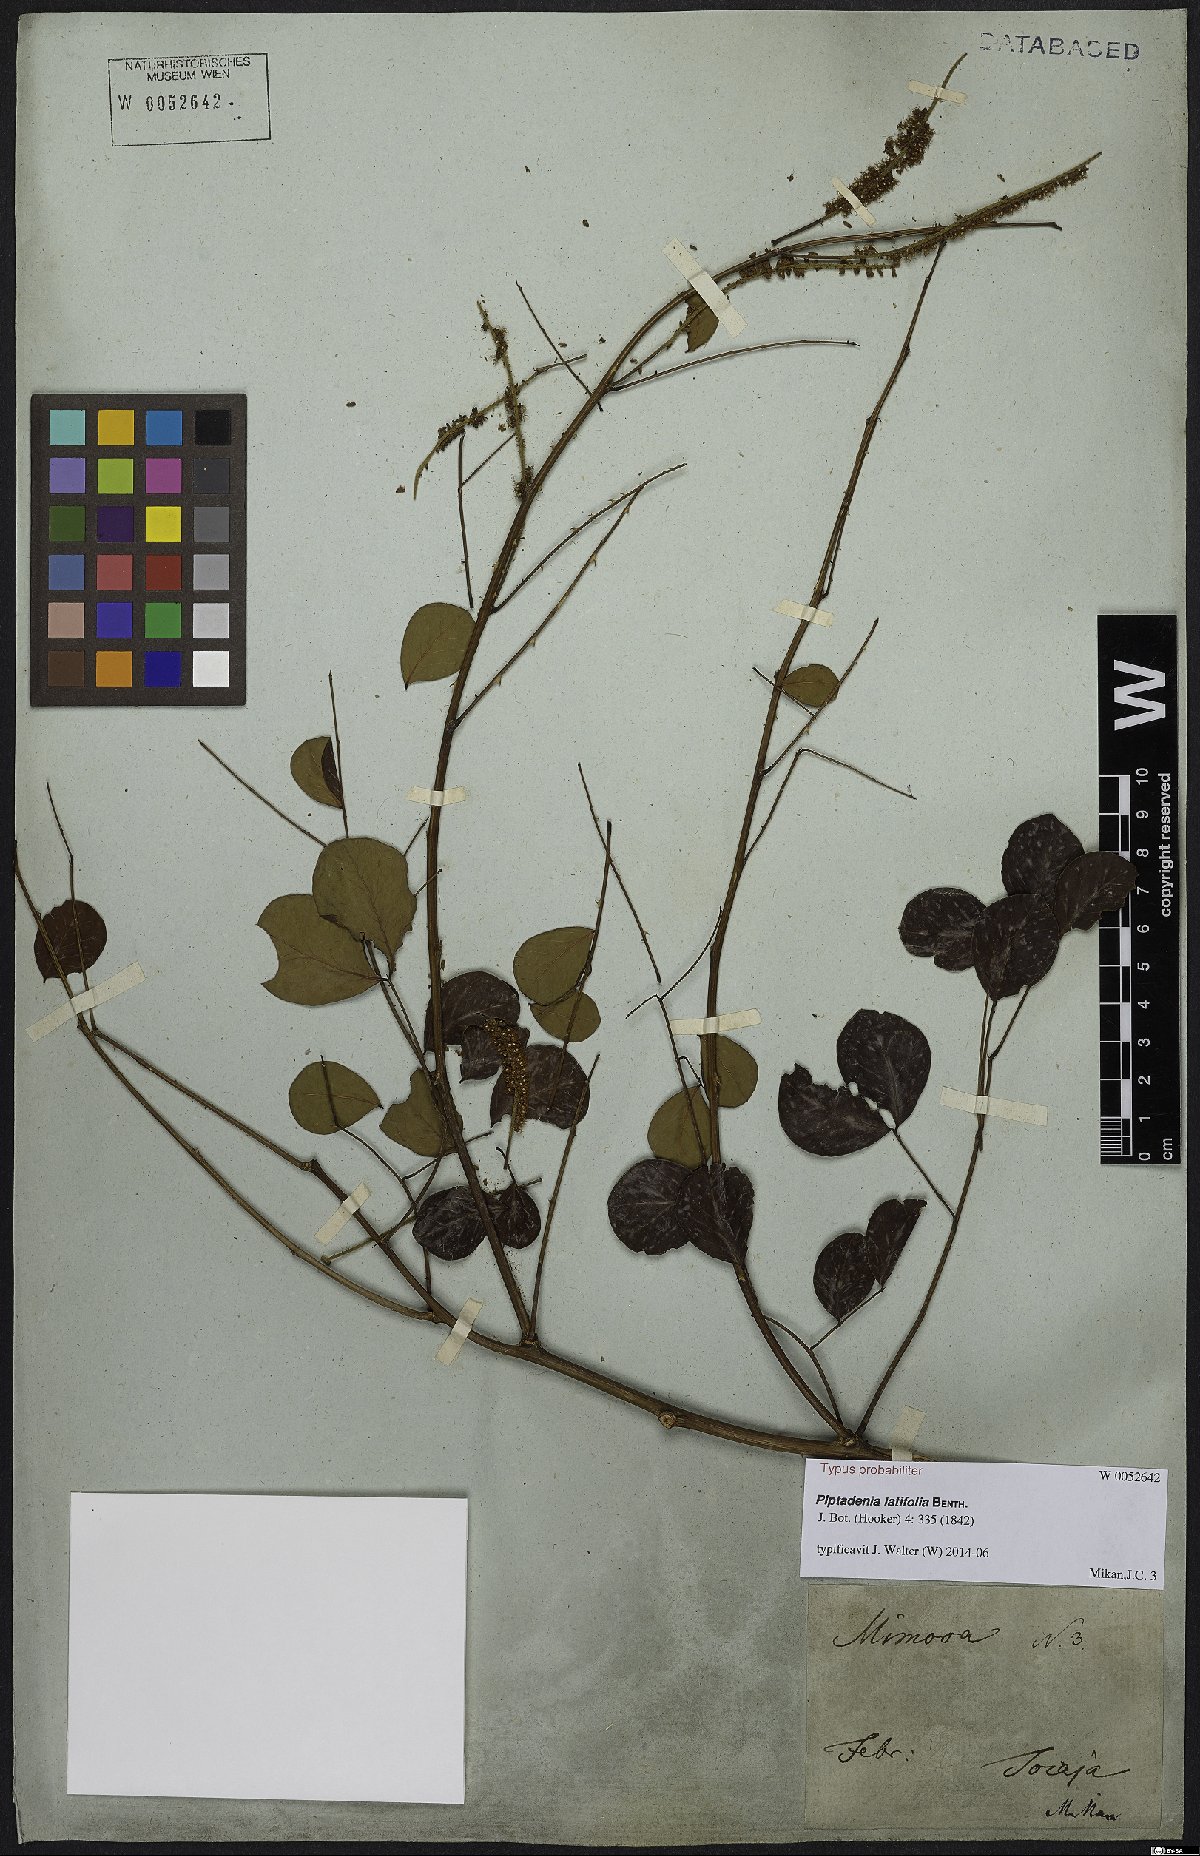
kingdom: Plantae
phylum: Tracheophyta
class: Magnoliopsida
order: Fabales
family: Fabaceae
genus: Piptadenia
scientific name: Piptadenia adiantoides
